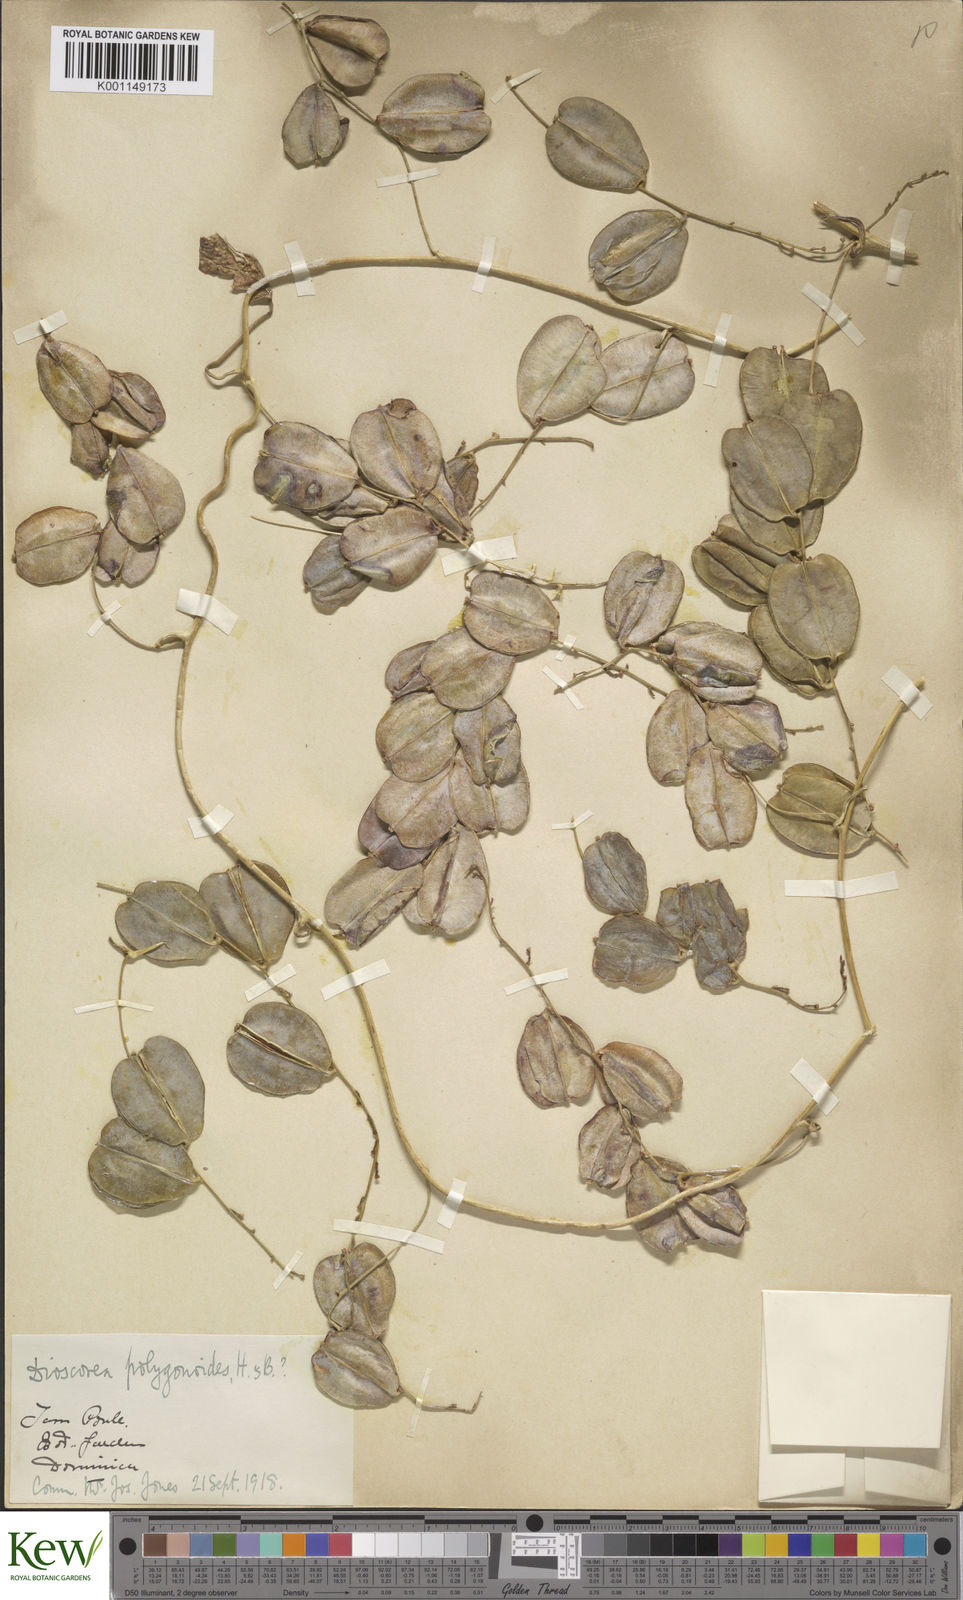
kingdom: Plantae
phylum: Tracheophyta
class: Liliopsida
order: Dioscoreales
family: Dioscoreaceae
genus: Dioscorea
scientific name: Dioscorea polygonoides
